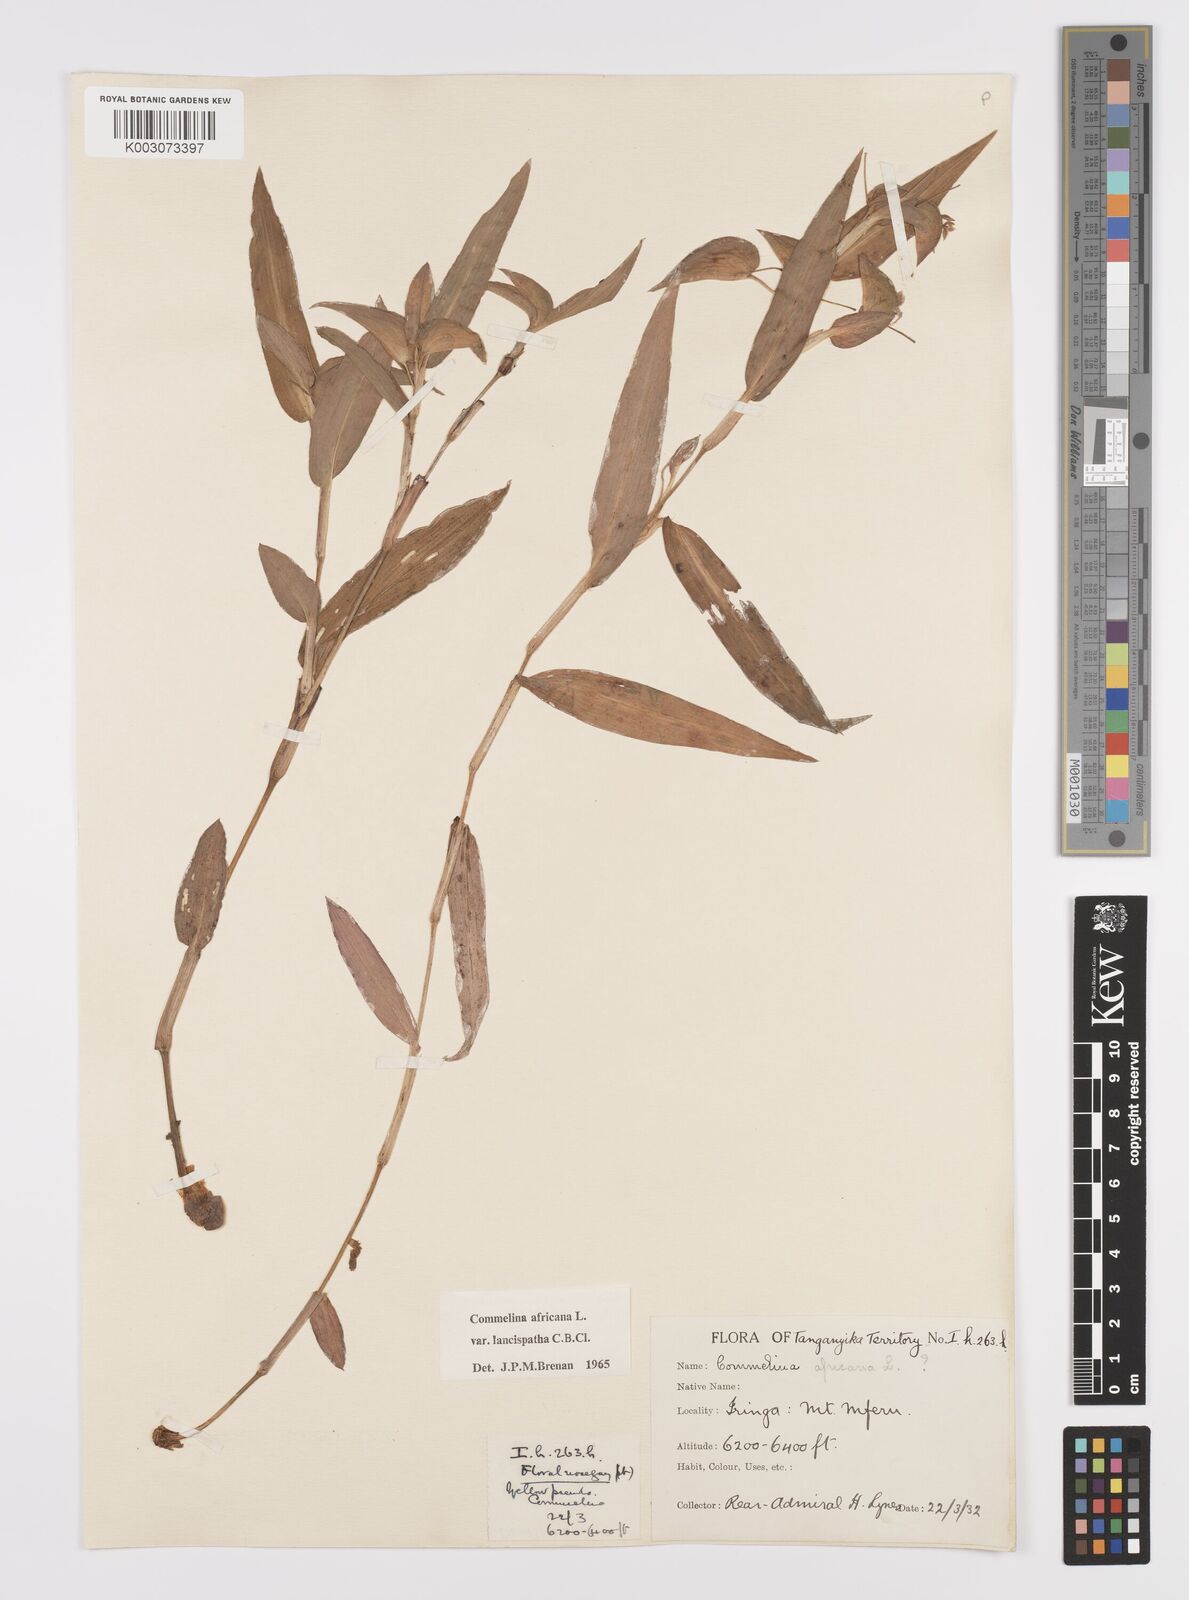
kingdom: Plantae
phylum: Tracheophyta
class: Liliopsida
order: Commelinales
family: Commelinaceae
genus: Commelina
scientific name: Commelina africana
